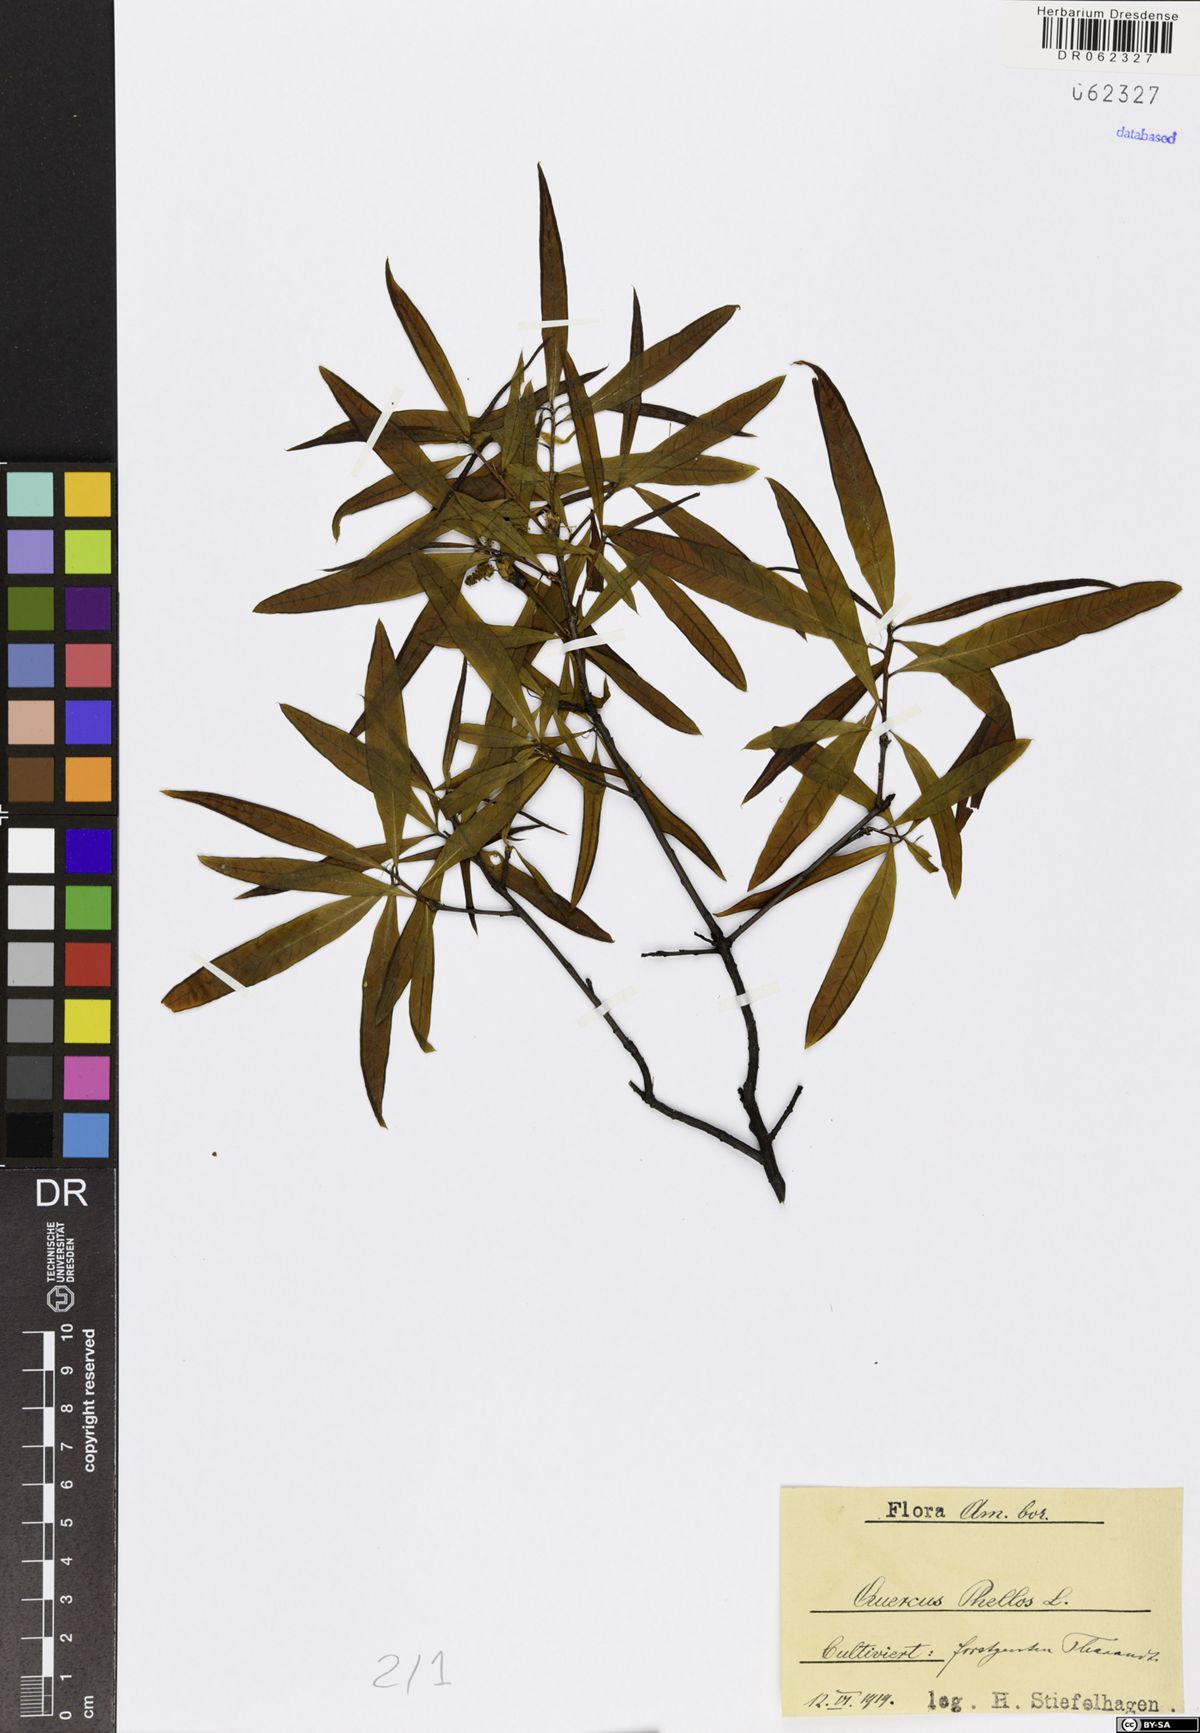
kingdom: Plantae
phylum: Tracheophyta
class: Magnoliopsida
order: Fagales
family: Fagaceae
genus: Quercus
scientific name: Quercus phellos
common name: Willow oak
